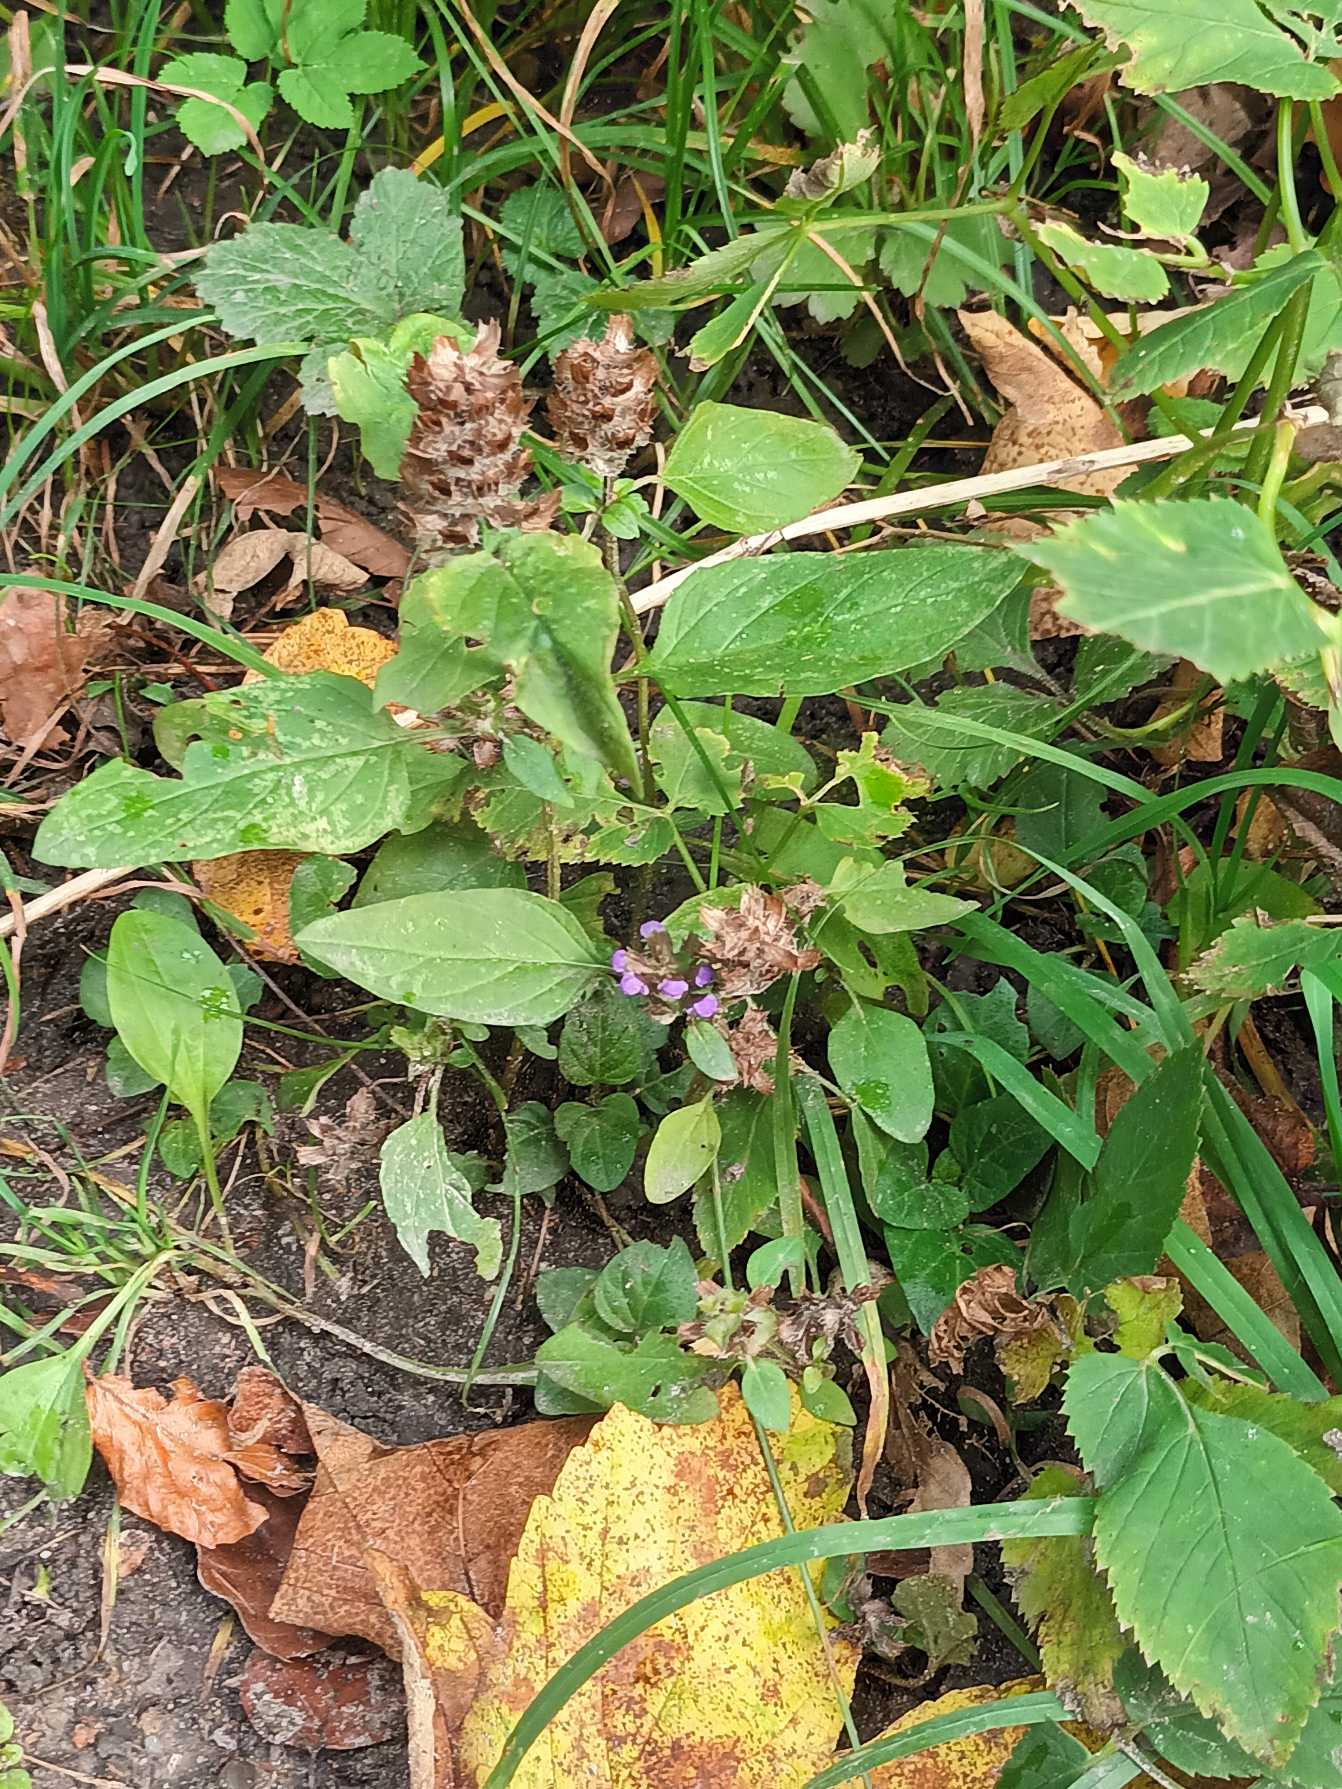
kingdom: Plantae
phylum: Tracheophyta
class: Magnoliopsida
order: Lamiales
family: Lamiaceae
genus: Prunella
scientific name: Prunella vulgaris
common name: Almindelig brunelle
